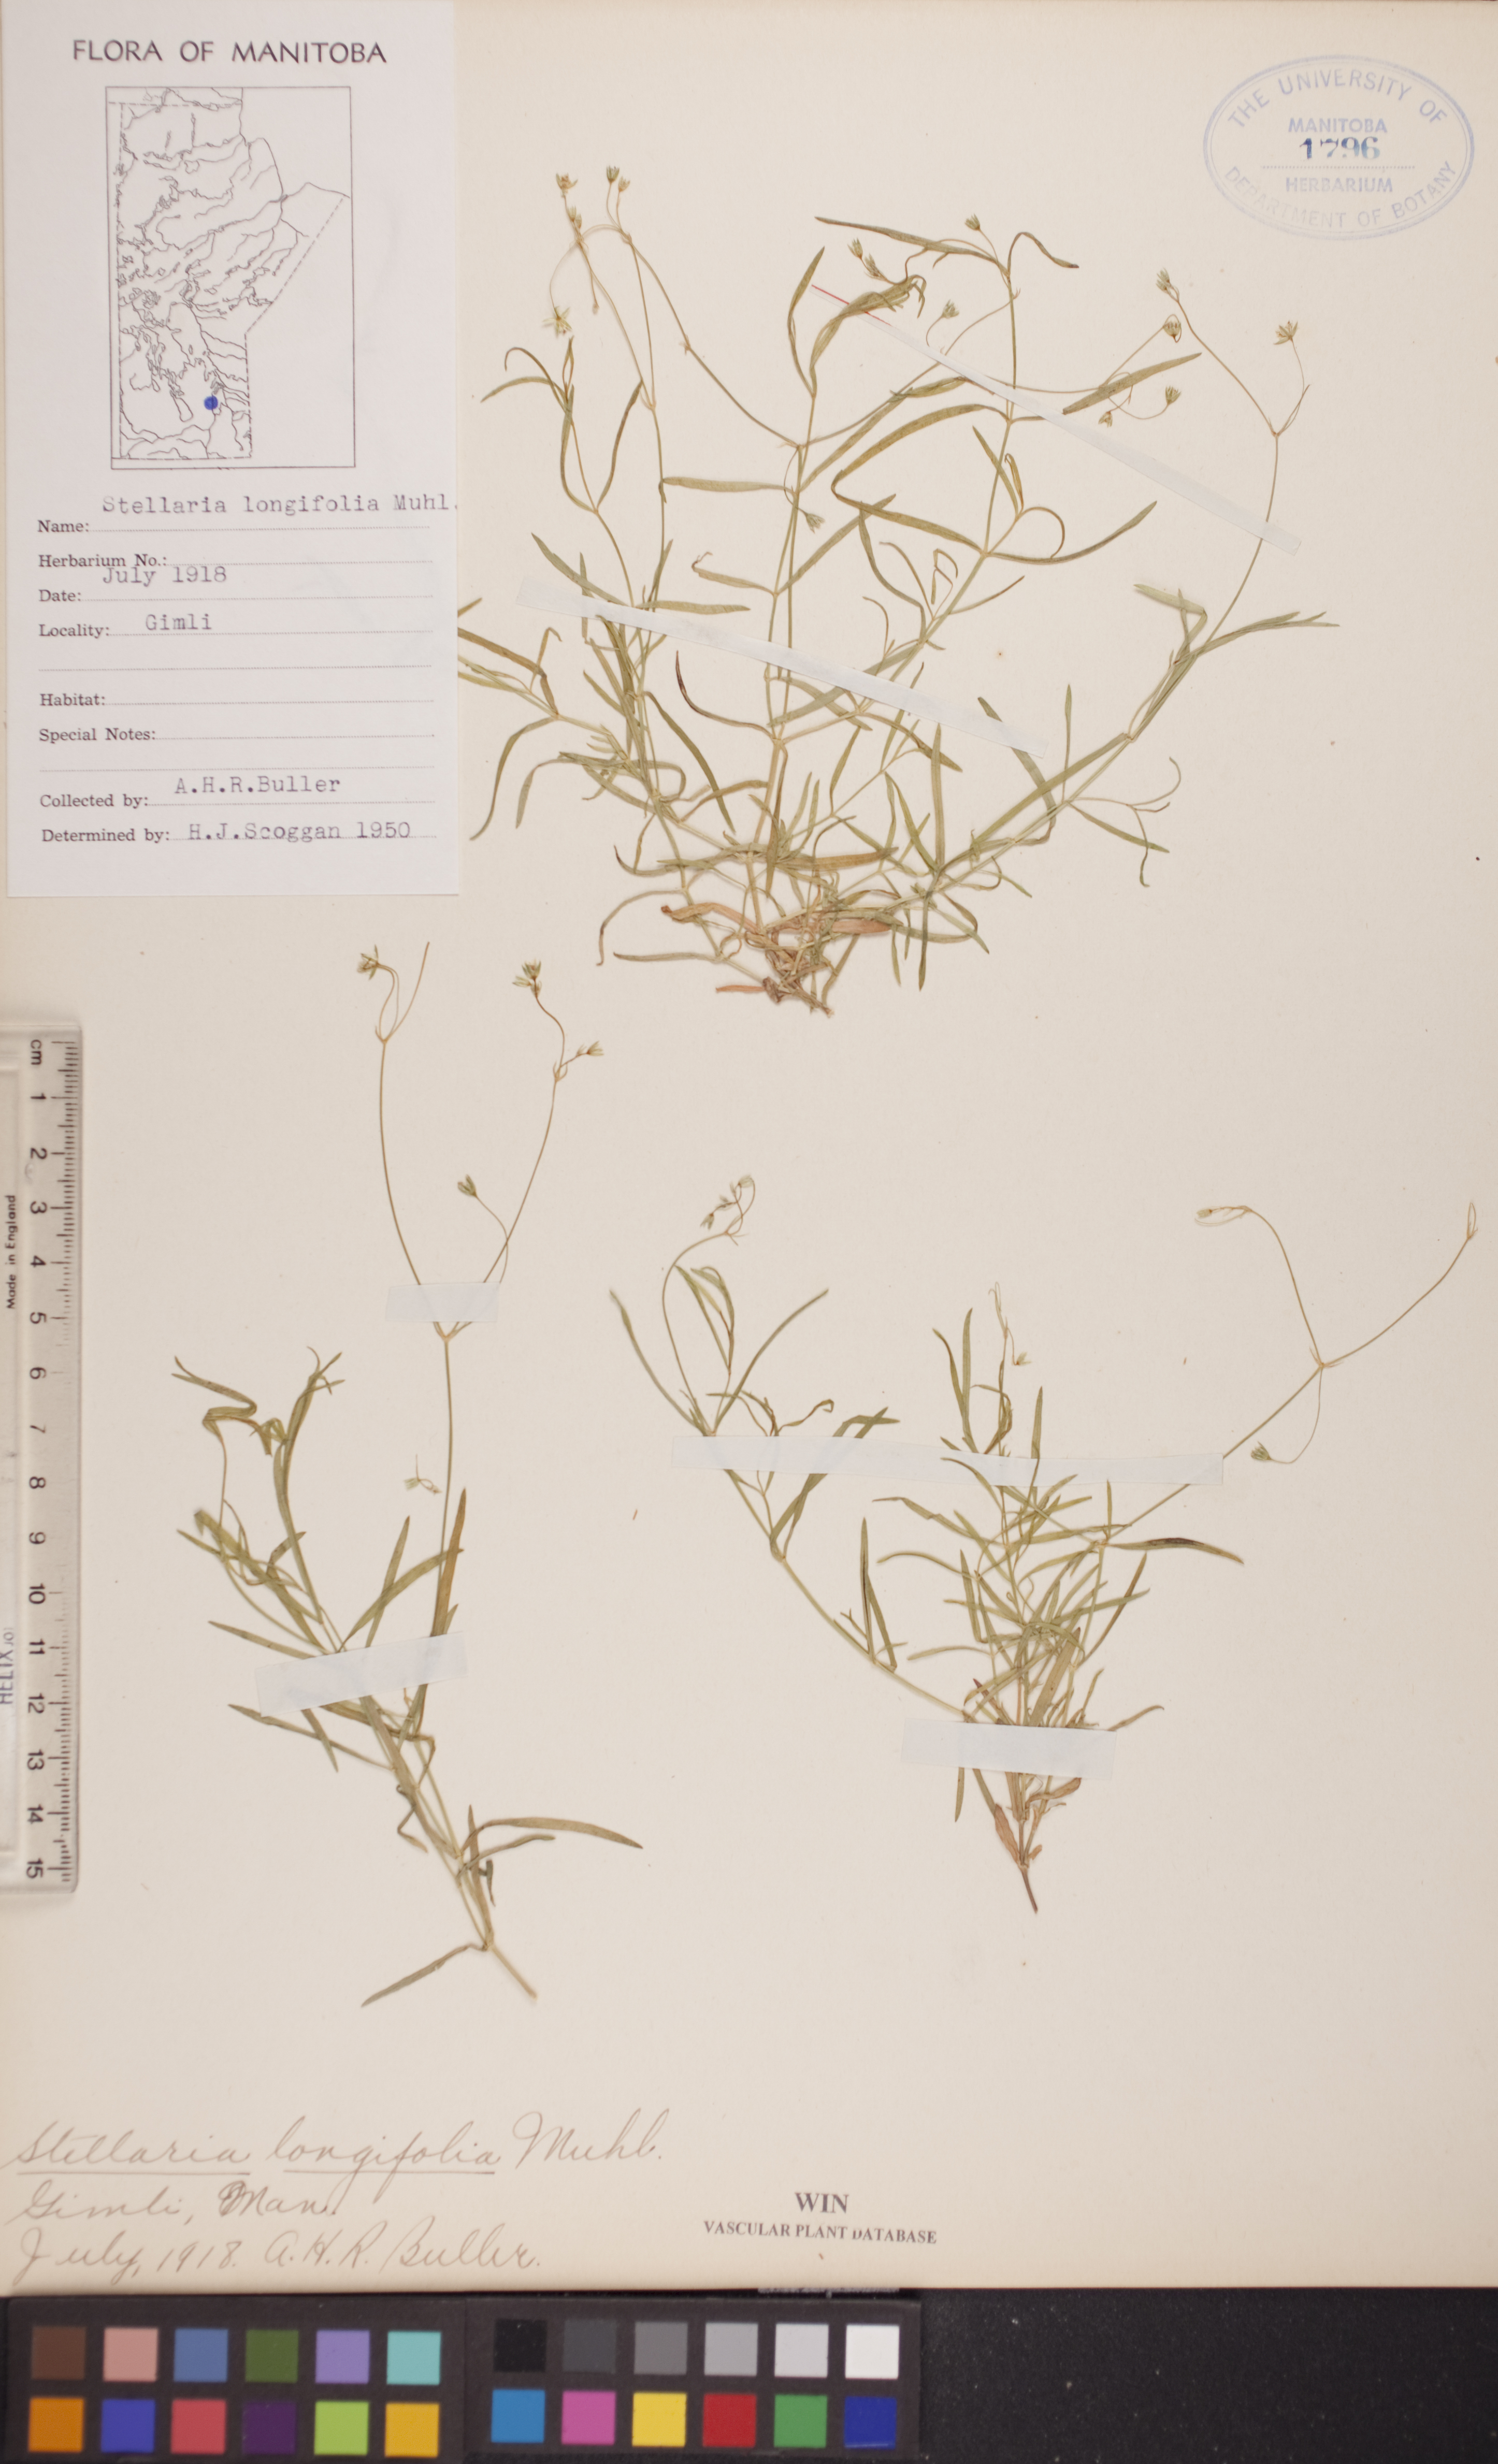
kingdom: Plantae
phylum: Tracheophyta
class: Magnoliopsida
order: Caryophyllales
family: Caryophyllaceae
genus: Stellaria
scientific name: Stellaria longifolia
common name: Long-leaved chickweed
